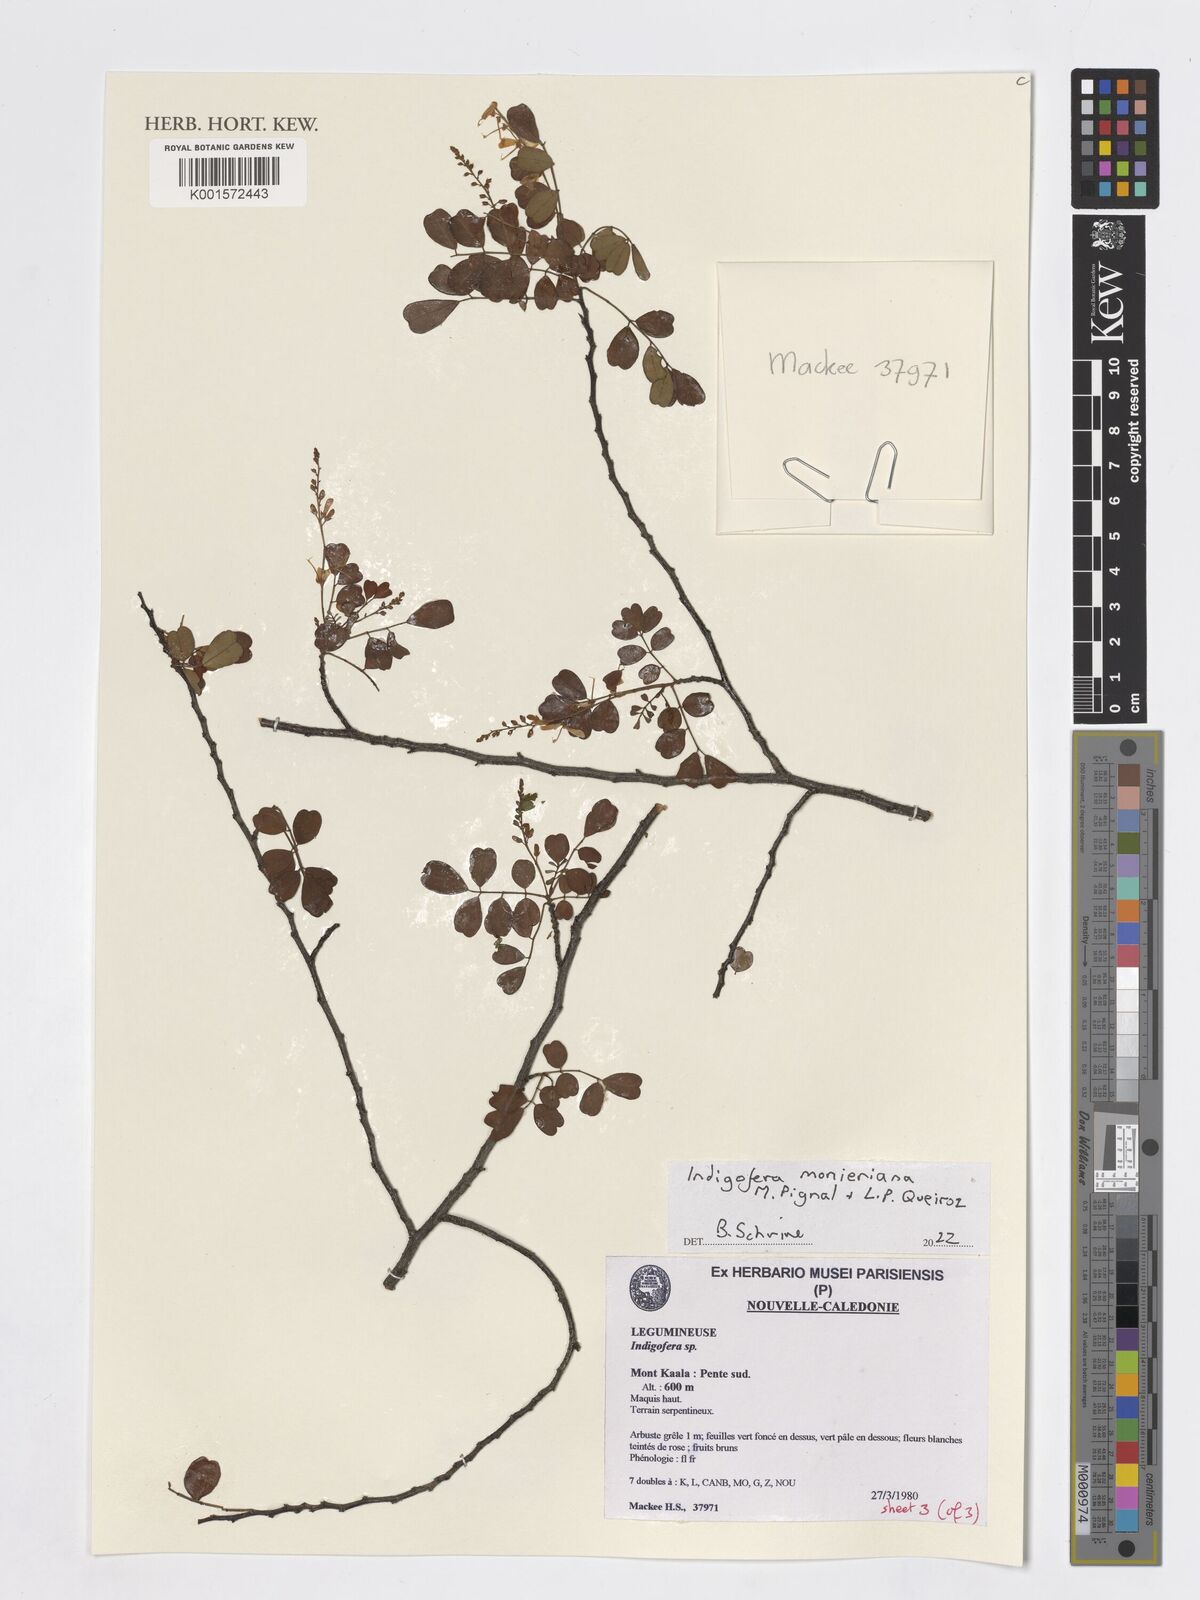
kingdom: Plantae
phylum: Tracheophyta
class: Magnoliopsida
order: Fabales
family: Fabaceae
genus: Indigofera
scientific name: Indigofera monieriana
